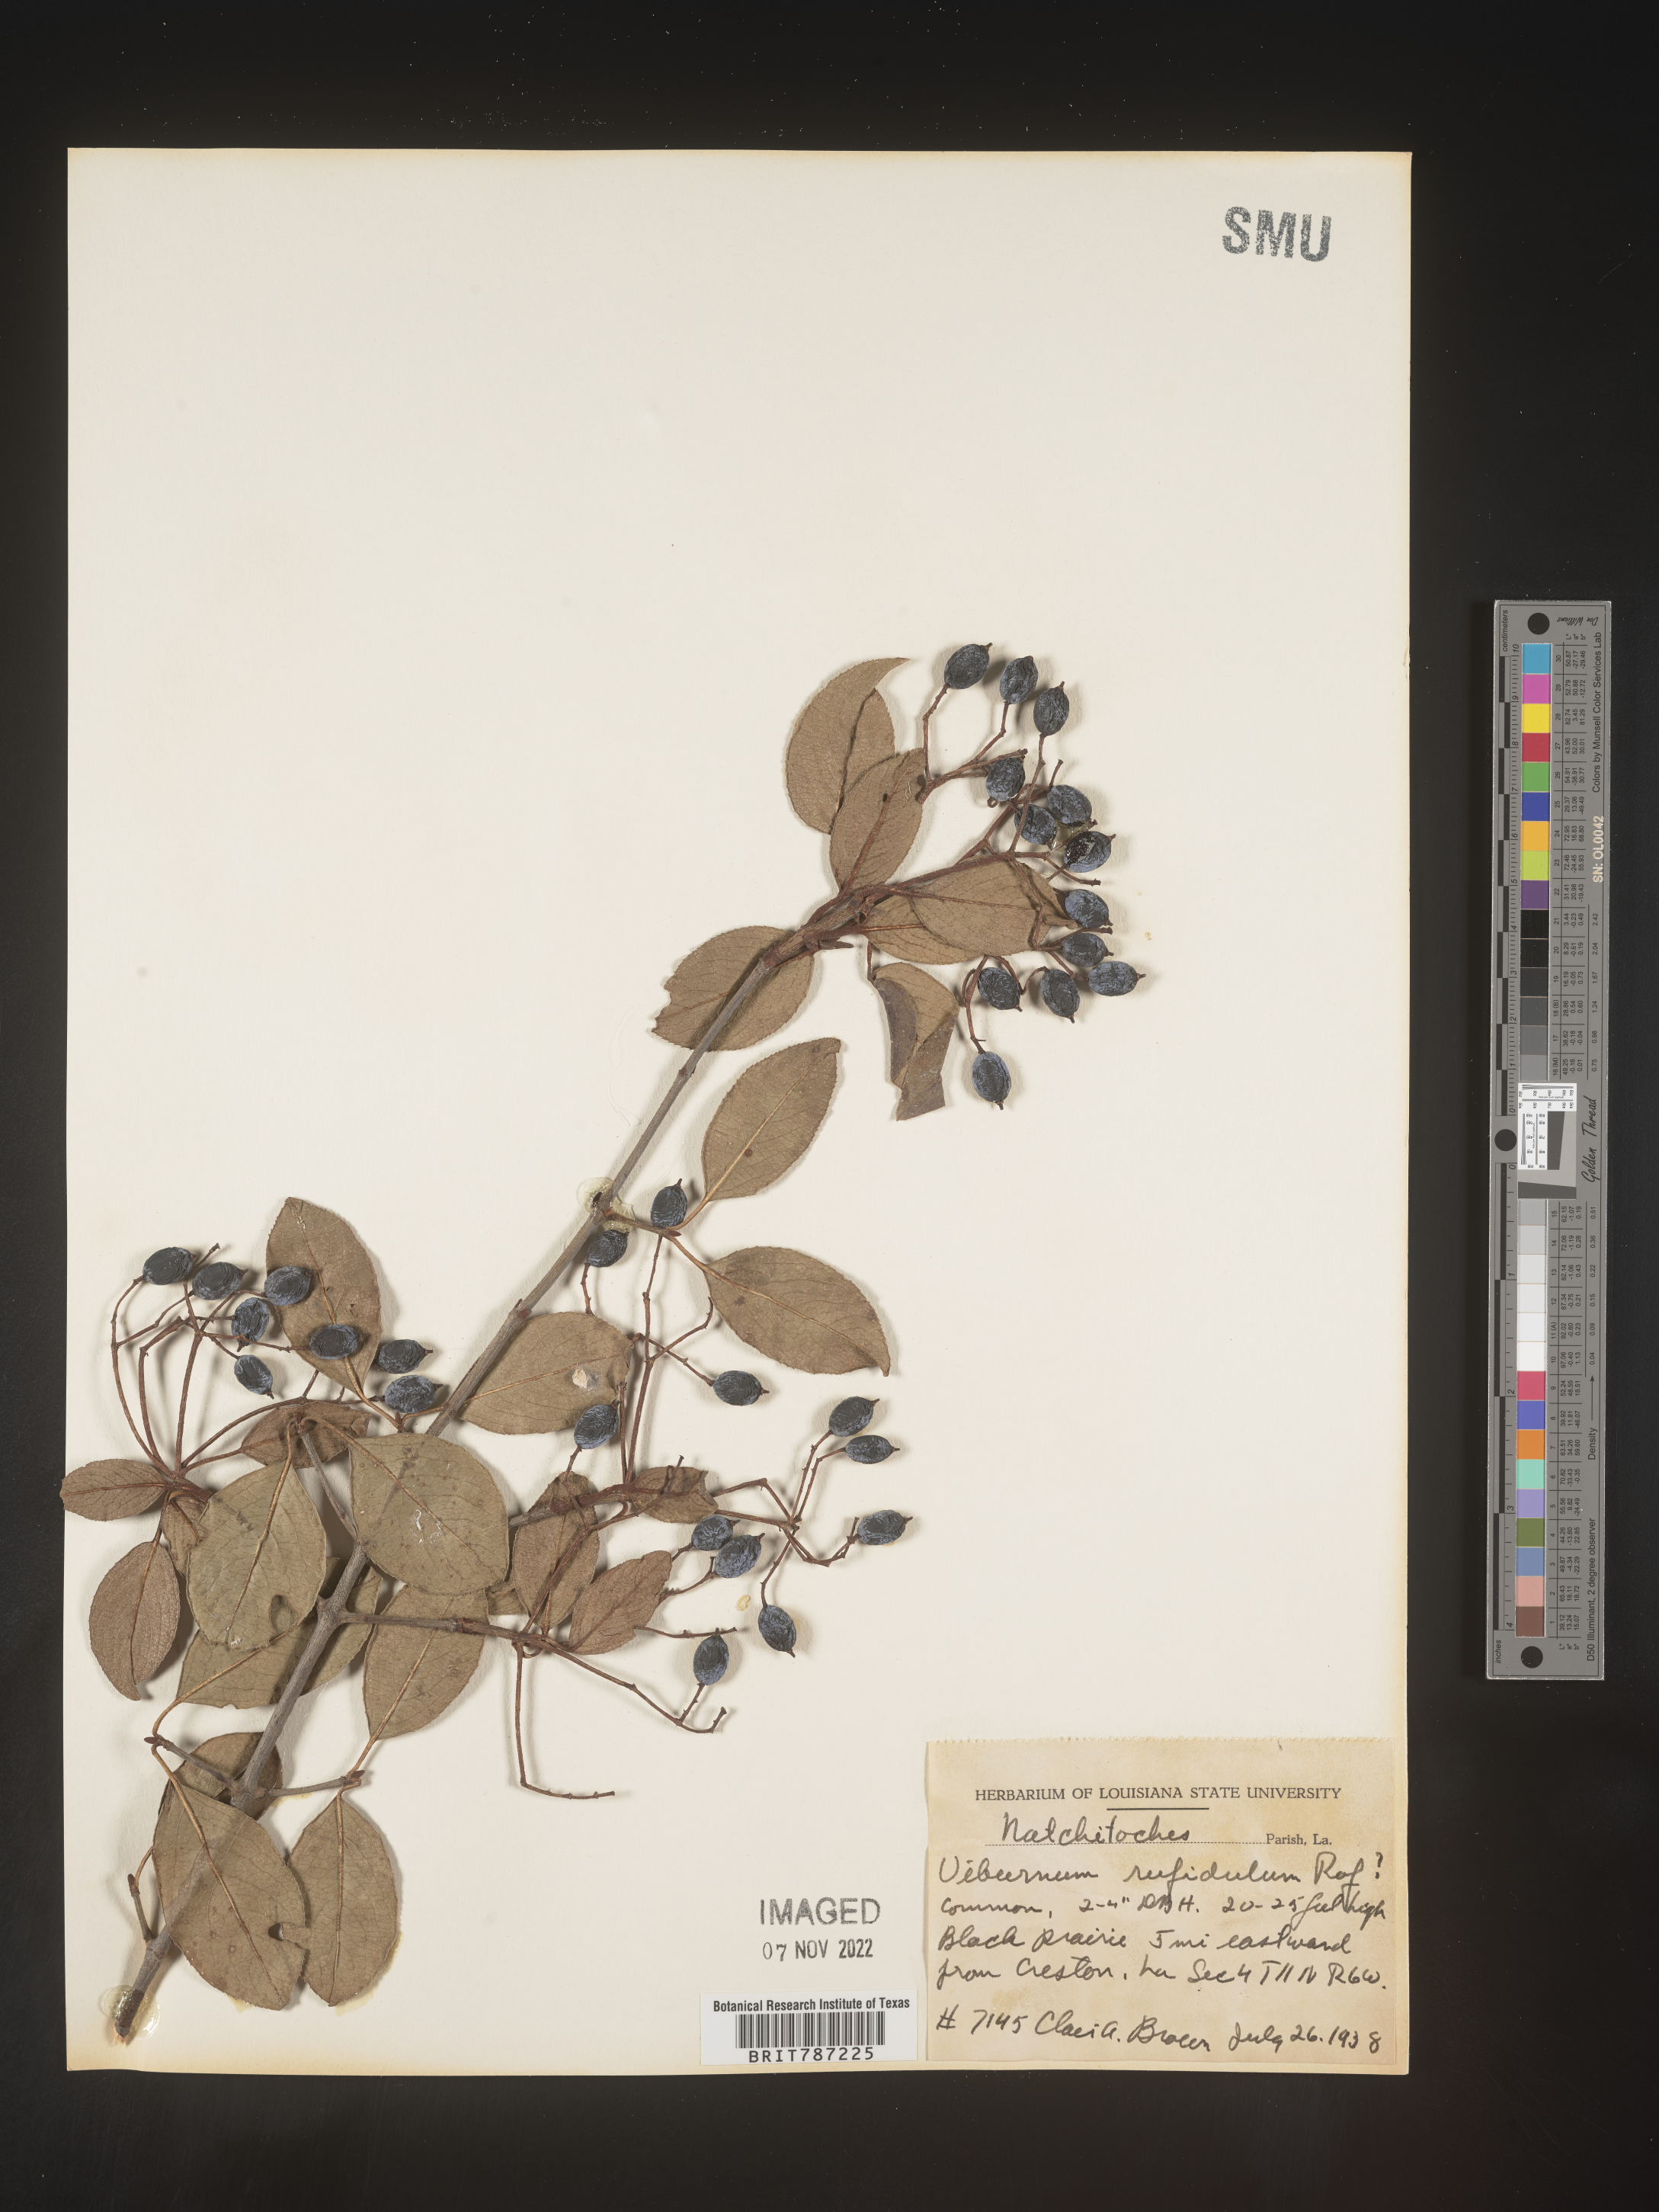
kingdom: Plantae
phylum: Tracheophyta
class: Magnoliopsida
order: Dipsacales
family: Viburnaceae
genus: Viburnum
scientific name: Viburnum rufidulum
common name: Blue haw
